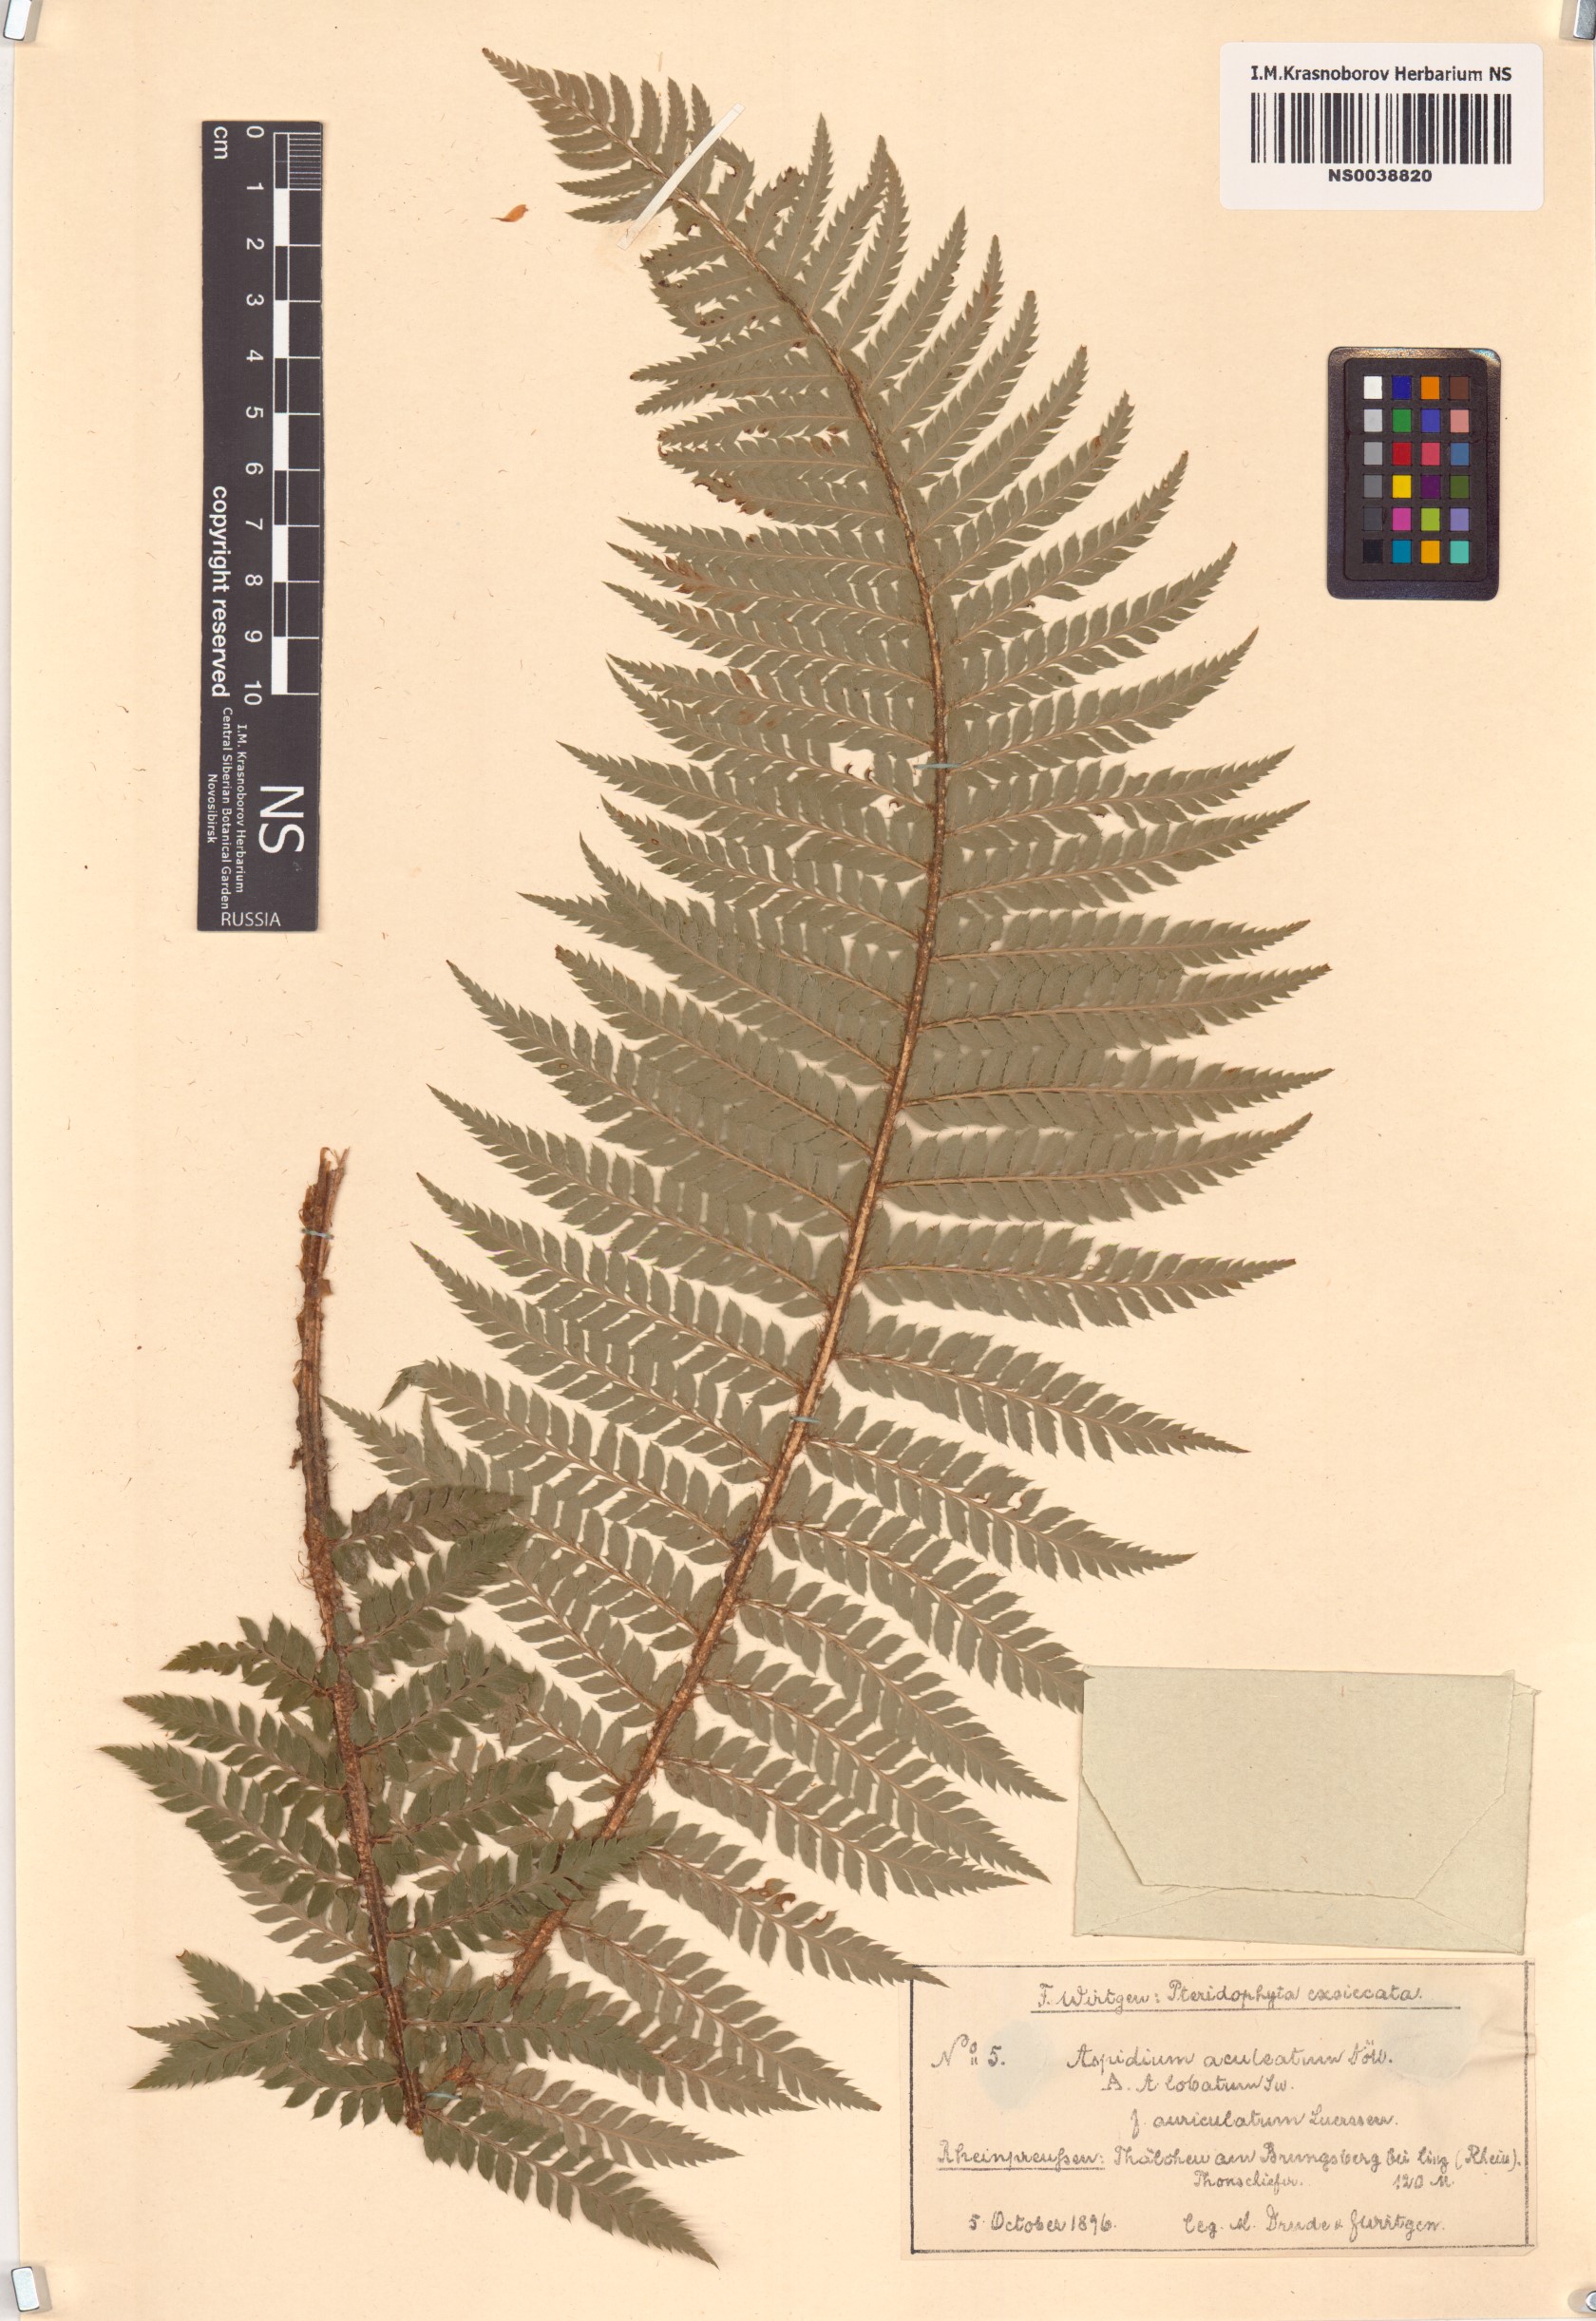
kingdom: Plantae
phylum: Tracheophyta
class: Polypodiopsida
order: Polypodiales
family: Dryopteridaceae
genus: Polystichum
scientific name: Polystichum aculeatum
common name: Hard shield-fern
